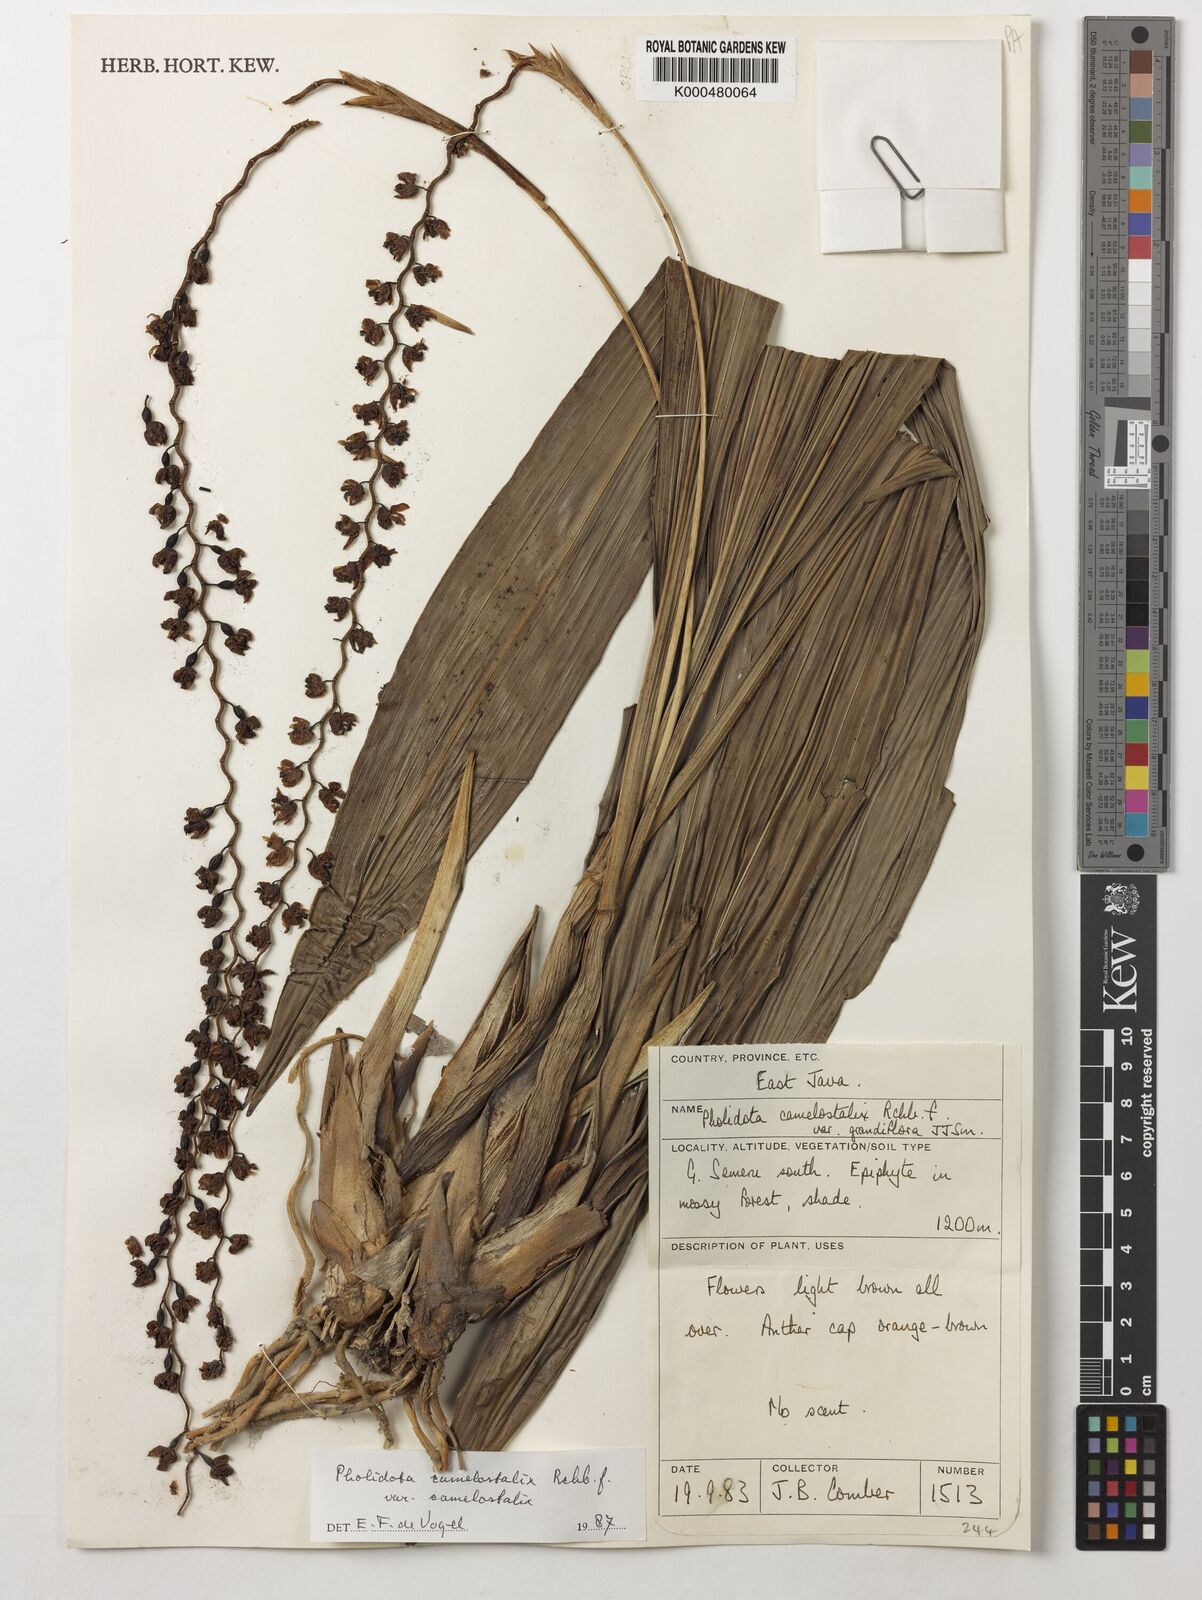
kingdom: Plantae
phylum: Tracheophyta
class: Liliopsida
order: Asparagales
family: Orchidaceae
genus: Coelogyne
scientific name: Coelogyne camelostalix
